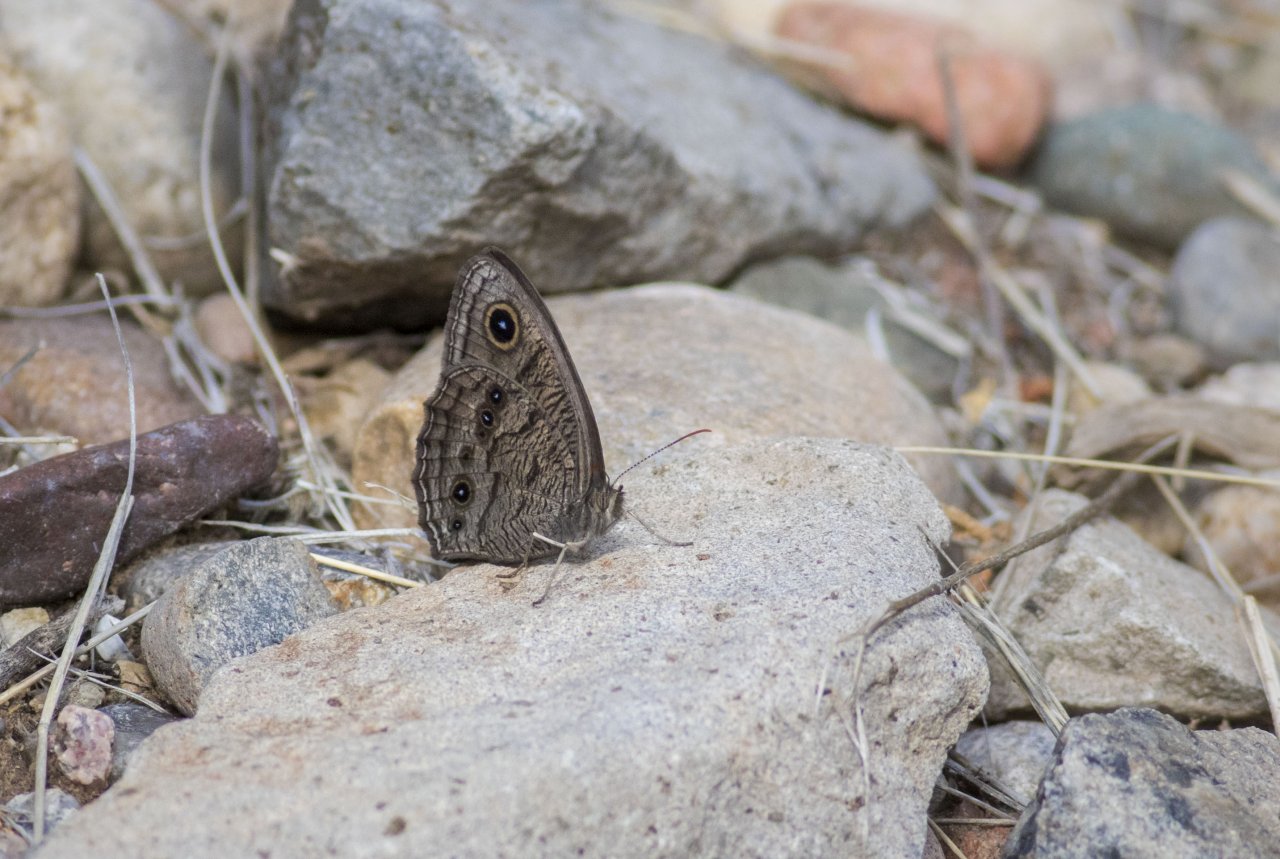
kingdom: Animalia
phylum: Arthropoda
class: Insecta
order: Lepidoptera
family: Nymphalidae
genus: Cercyonis
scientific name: Cercyonis pegala
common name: Common Wood-Nymph
